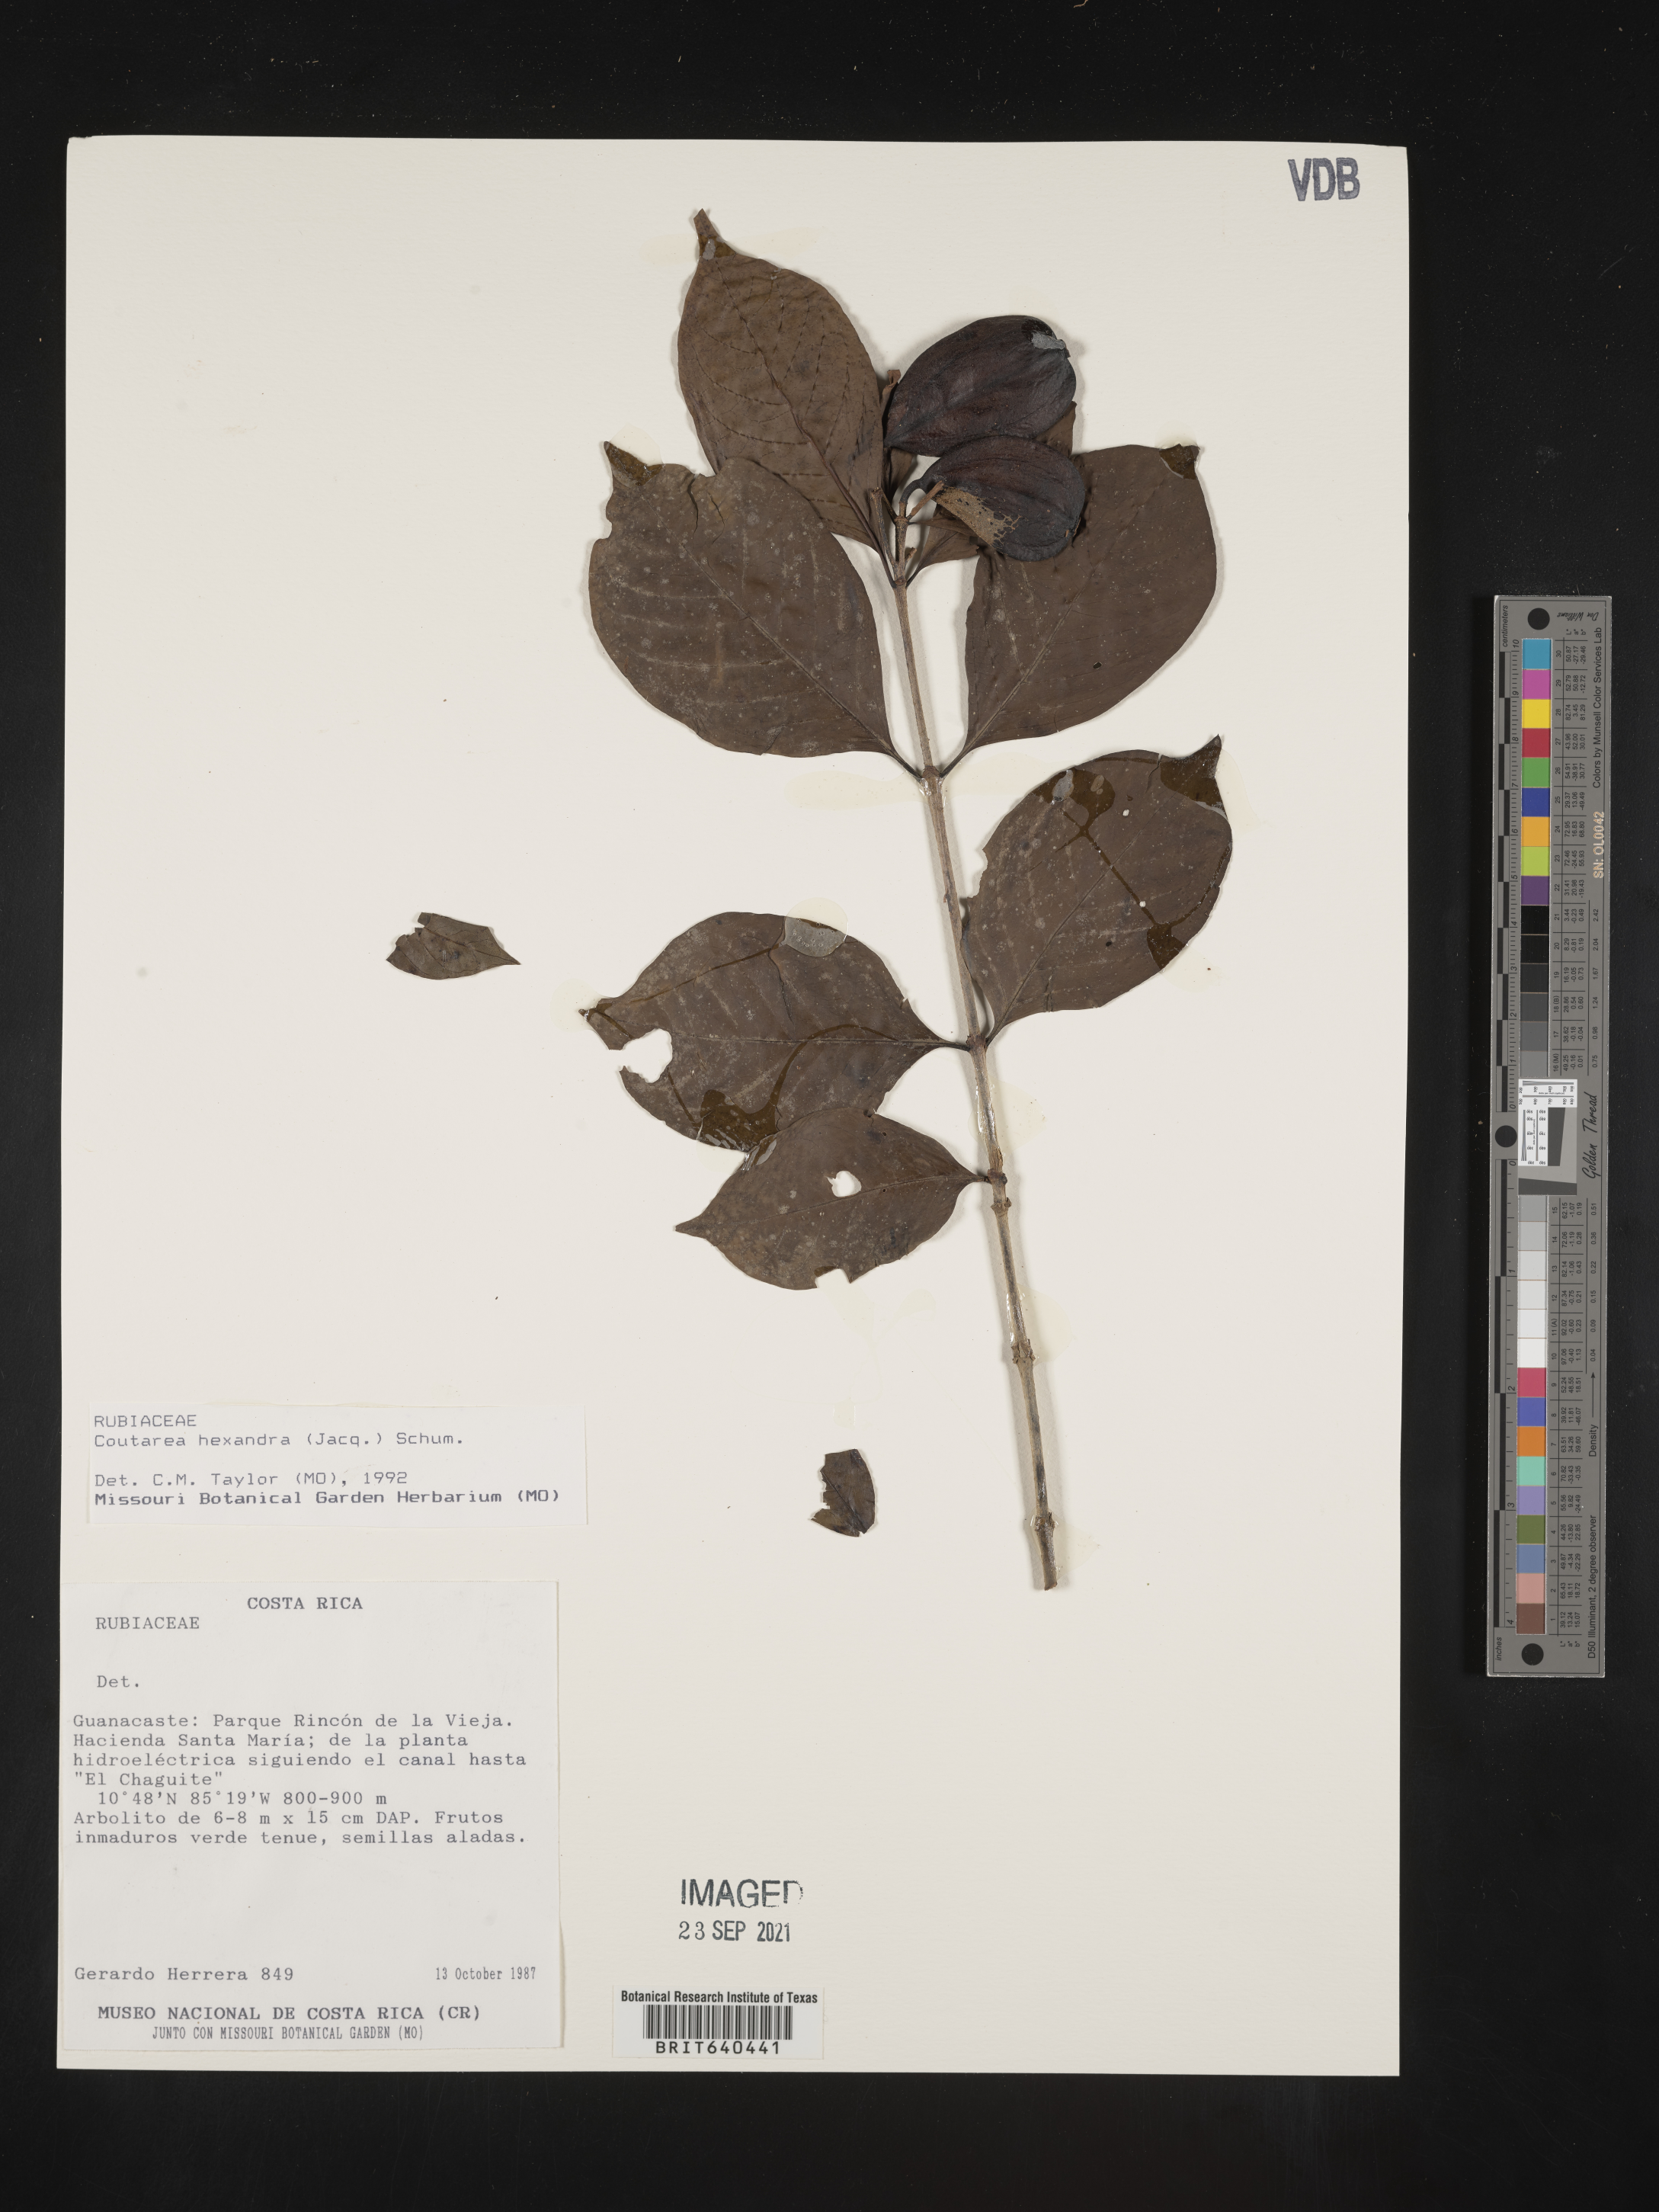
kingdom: Plantae
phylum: Tracheophyta
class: Magnoliopsida
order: Gentianales
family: Rubiaceae
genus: Coutarea
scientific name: Coutarea
